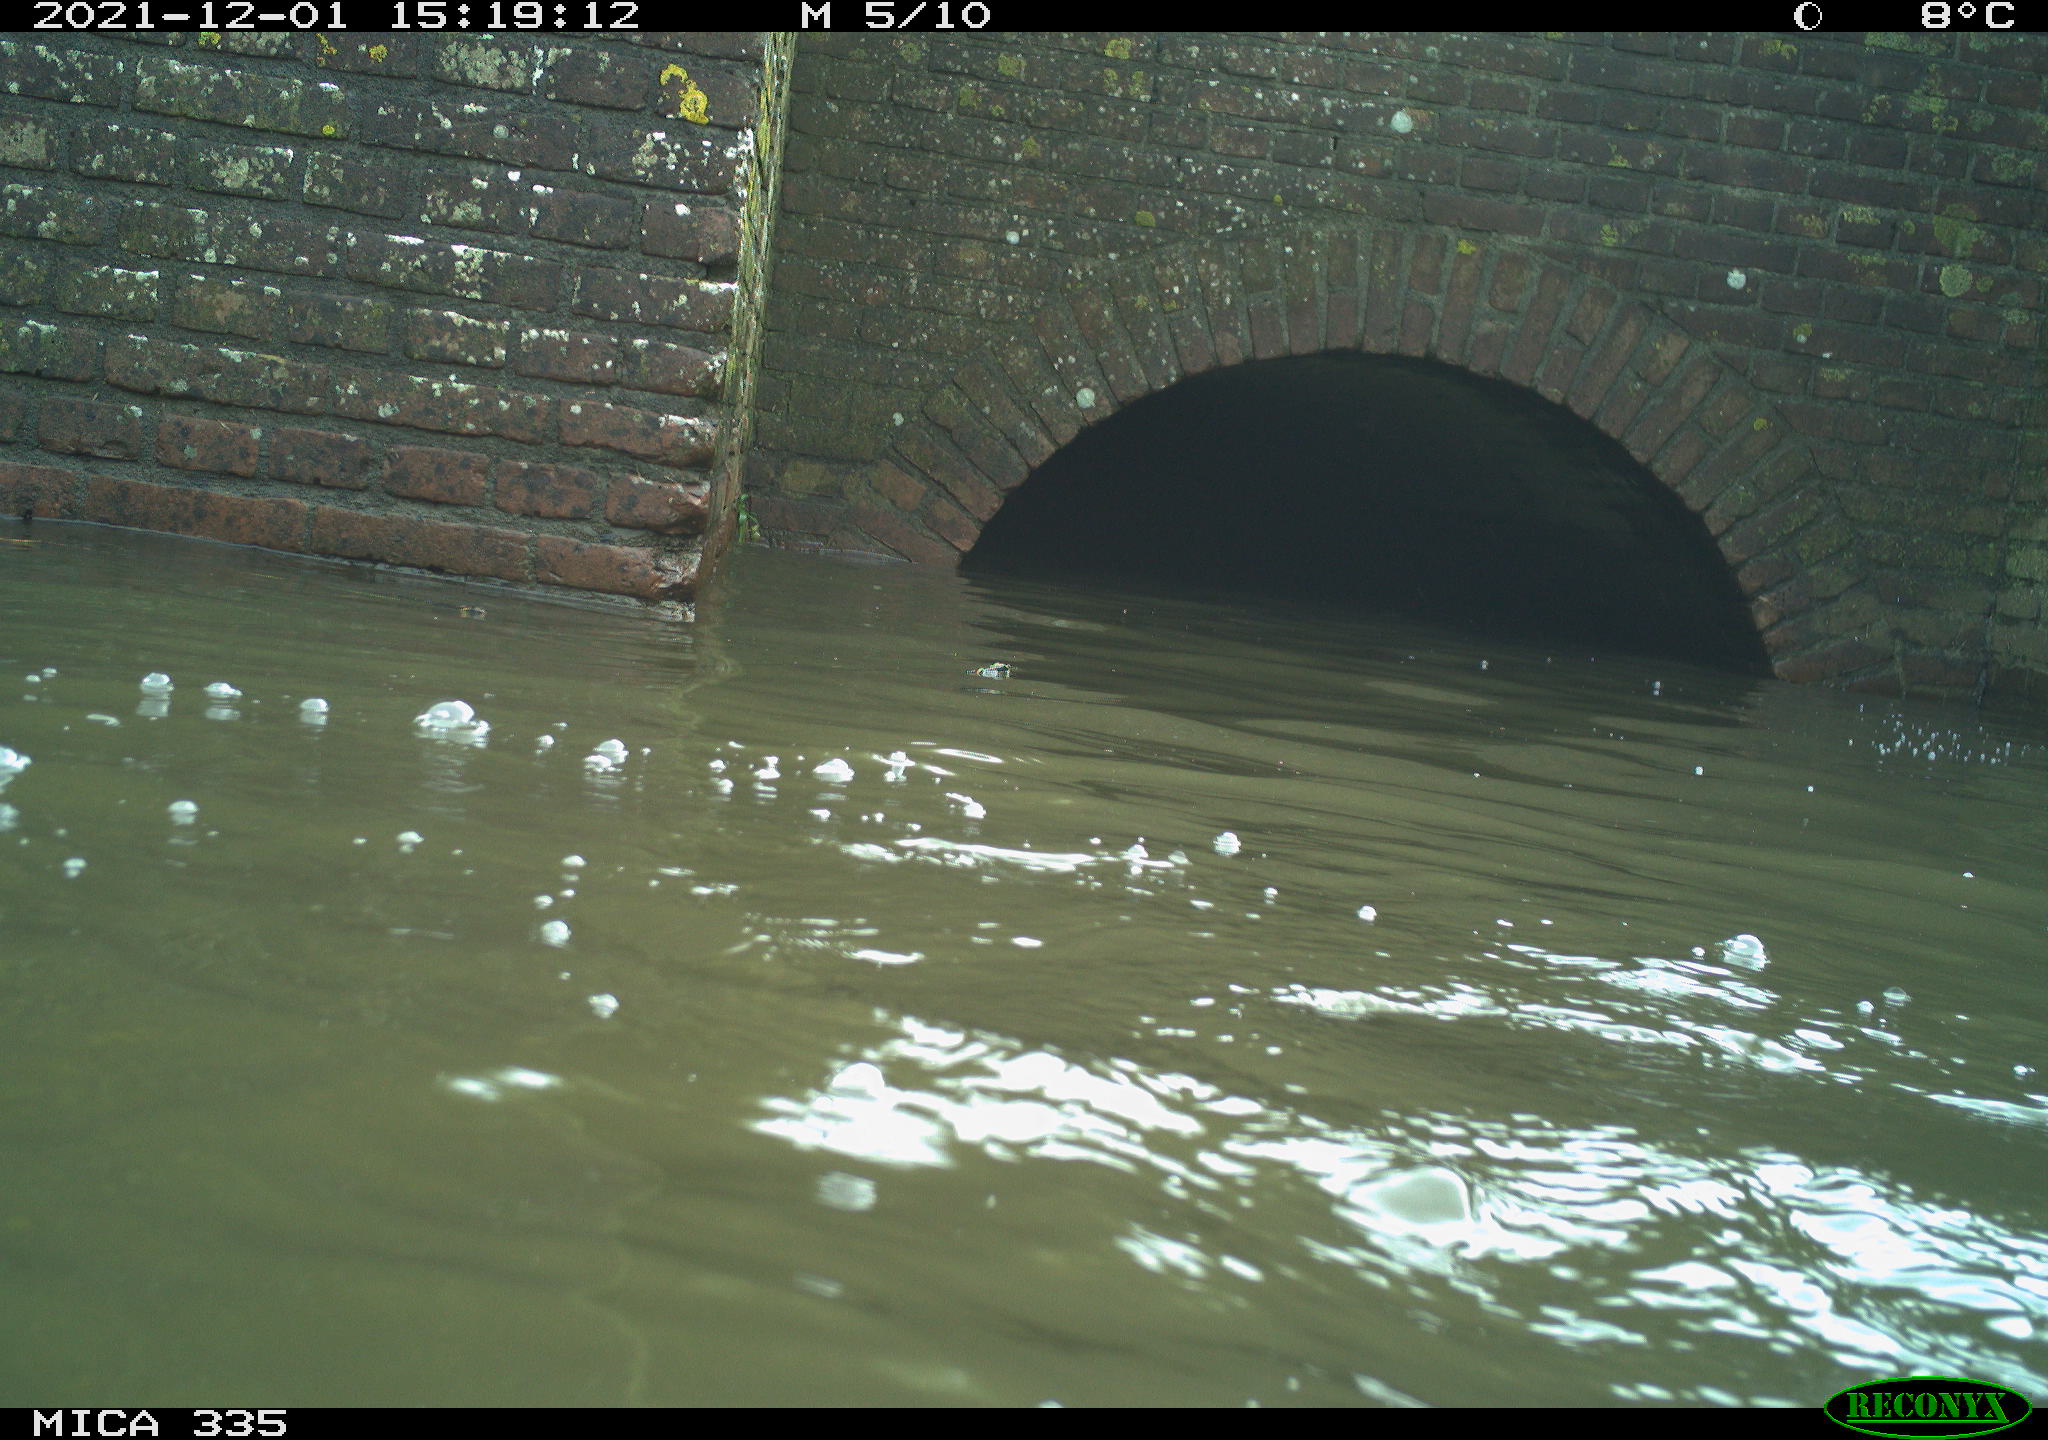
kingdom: Animalia
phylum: Chordata
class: Aves
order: Suliformes
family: Phalacrocoracidae
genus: Phalacrocorax
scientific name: Phalacrocorax carbo
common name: Great cormorant
